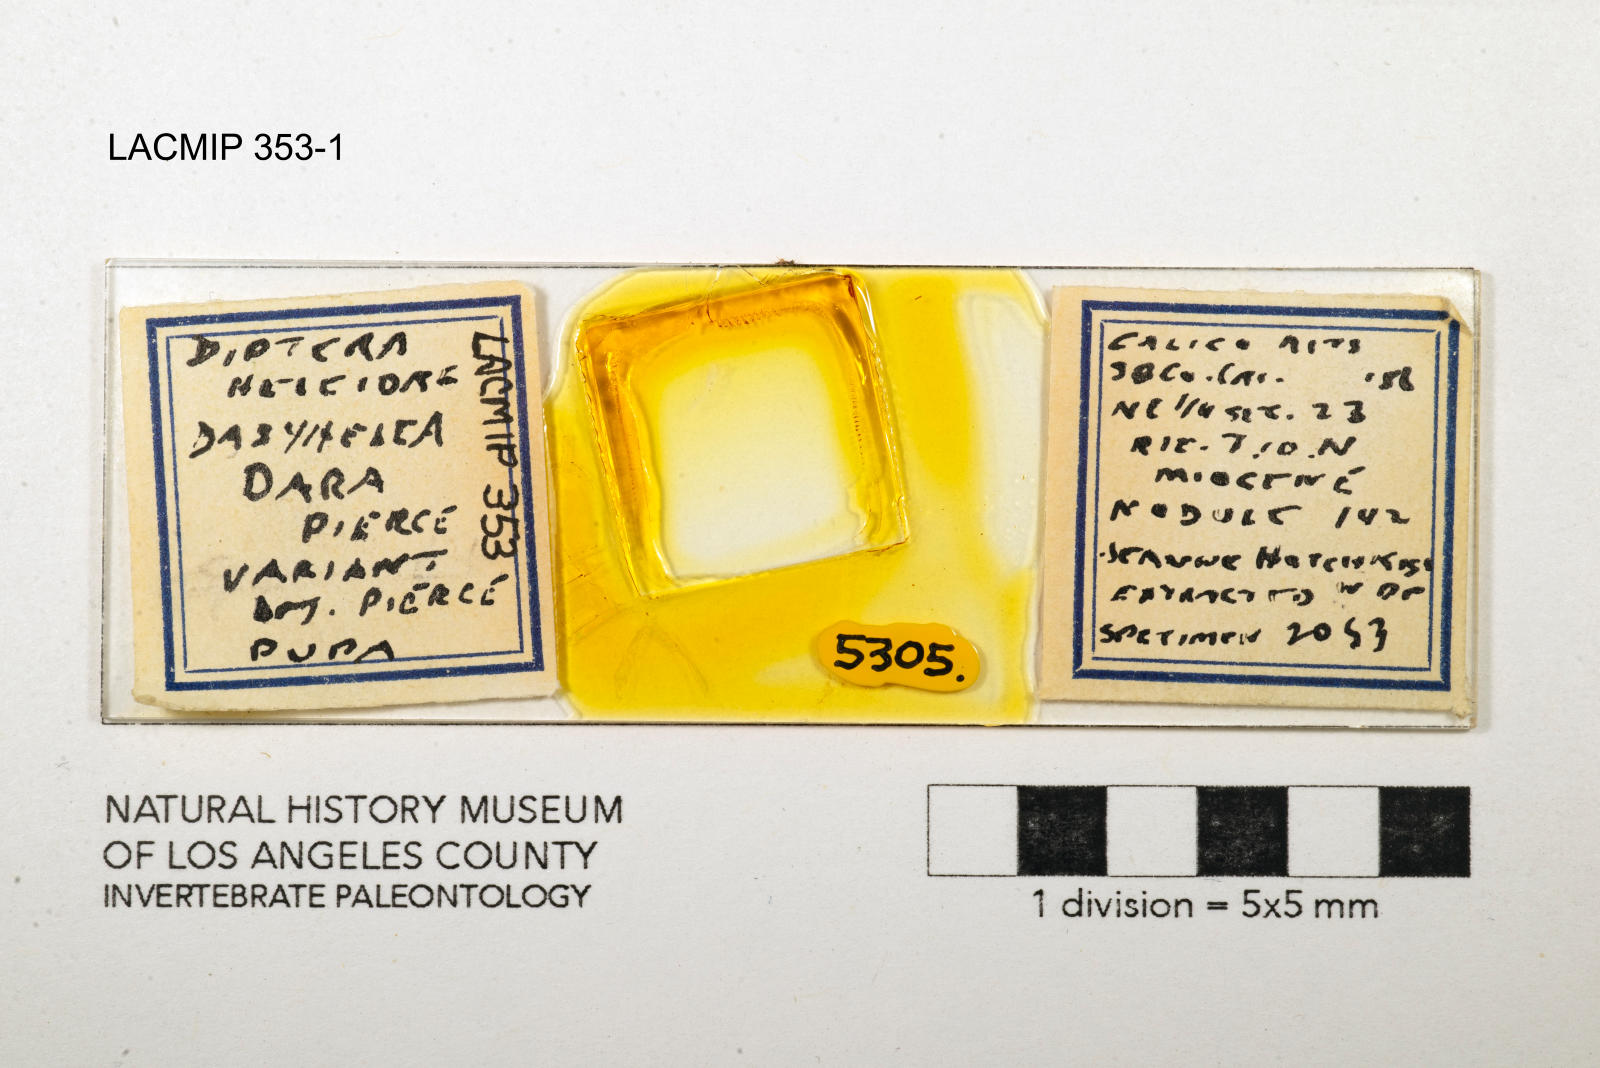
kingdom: Animalia
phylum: Arthropoda
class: Insecta
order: Diptera
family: Ceratopogonidae
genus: Dasyhelea
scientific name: Dasyhelea dara
